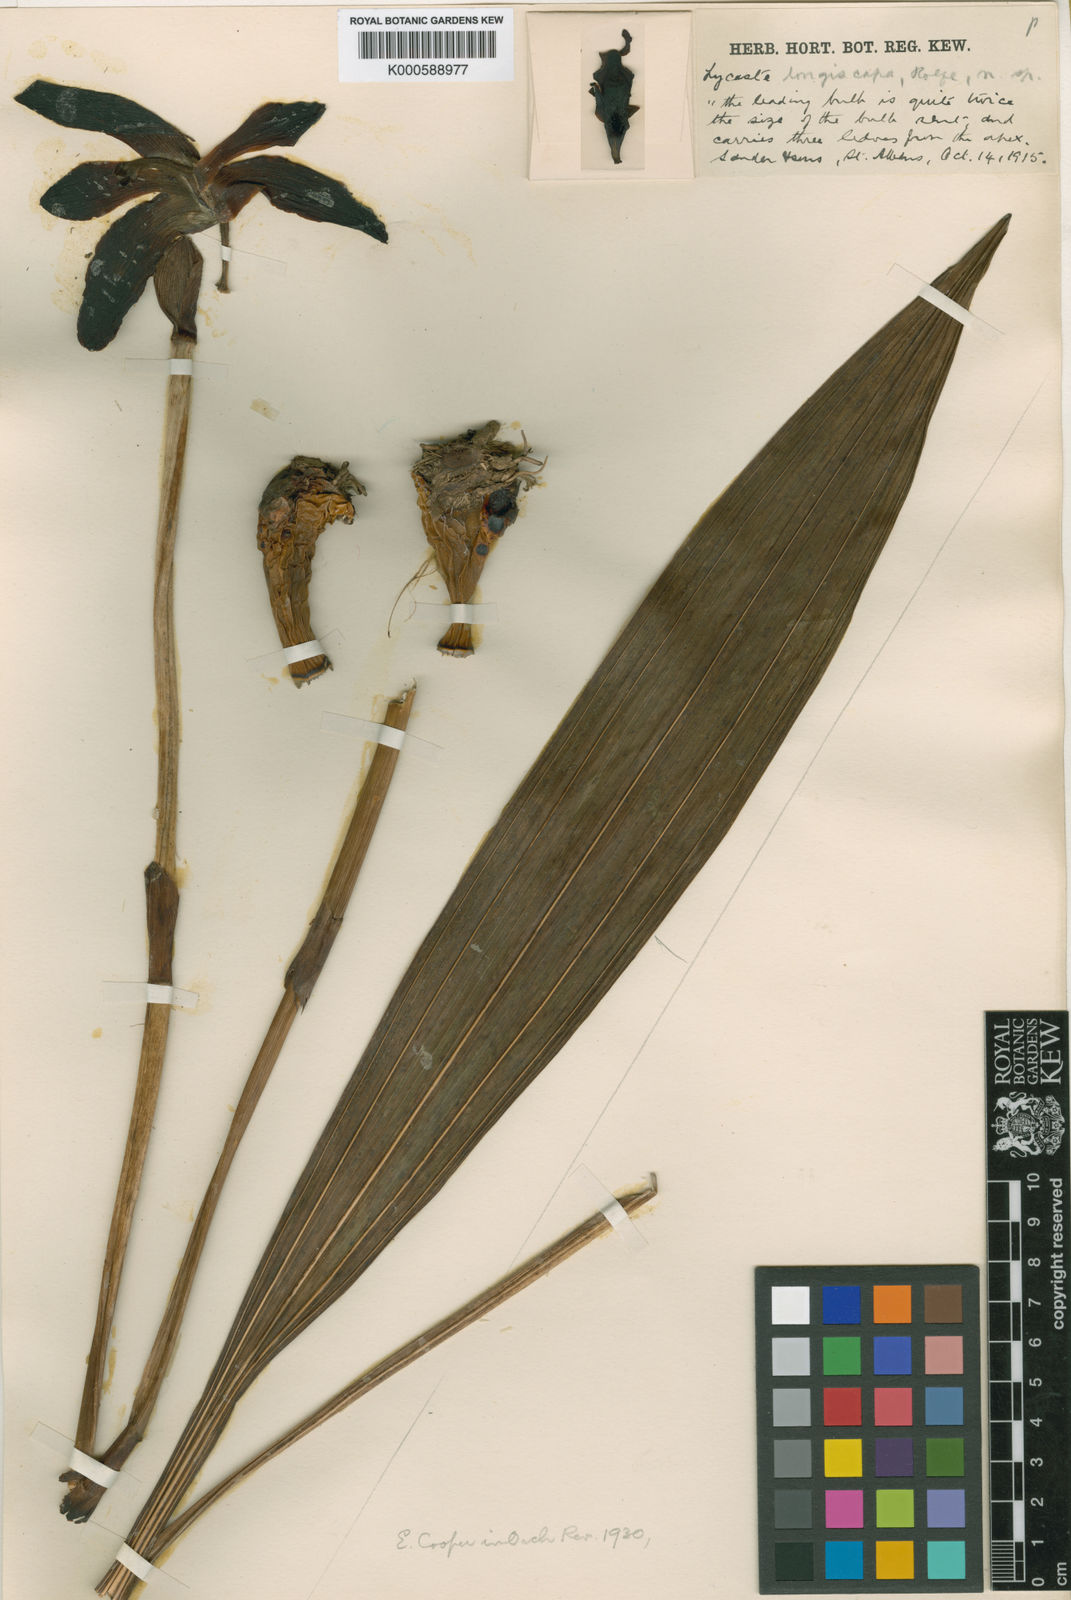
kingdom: Plantae
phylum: Tracheophyta
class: Liliopsida
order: Asparagales
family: Orchidaceae
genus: Lycaste
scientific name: Lycaste
